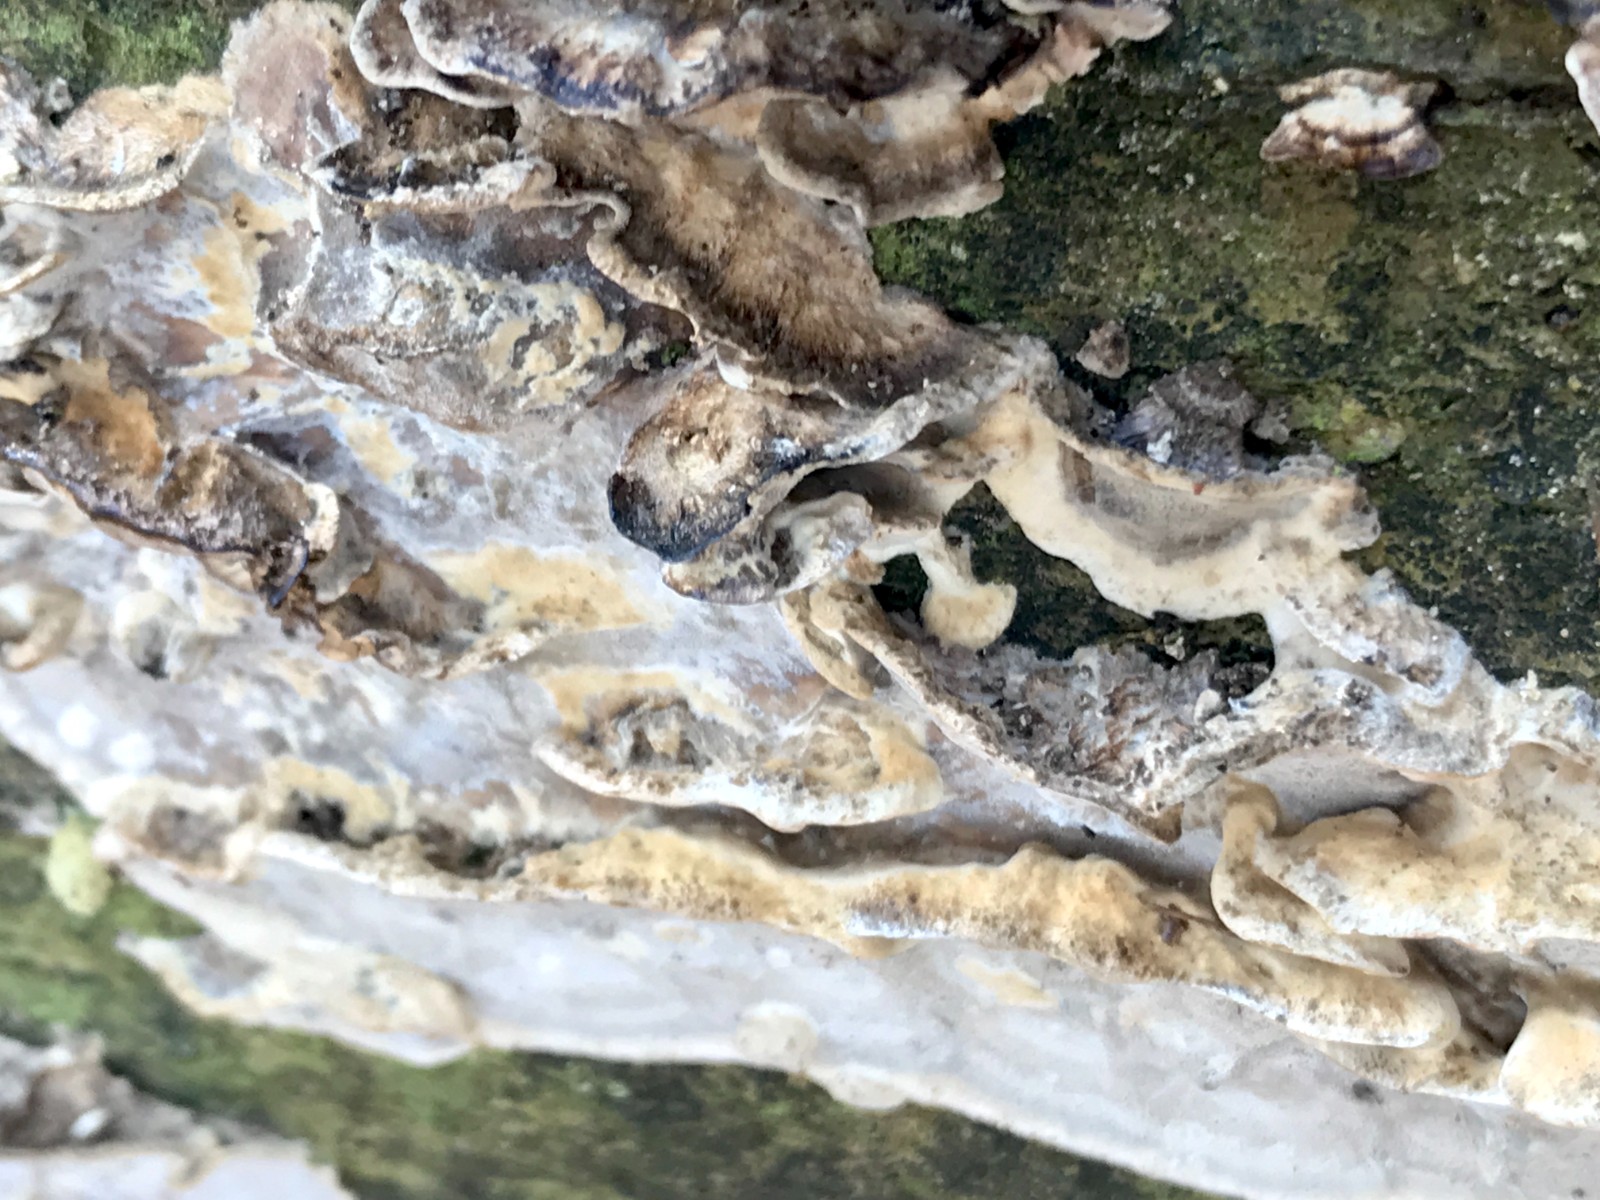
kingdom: Fungi
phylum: Basidiomycota
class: Agaricomycetes
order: Polyporales
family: Phanerochaetaceae
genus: Bjerkandera
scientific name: Bjerkandera adusta
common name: sveden sodporesvamp
